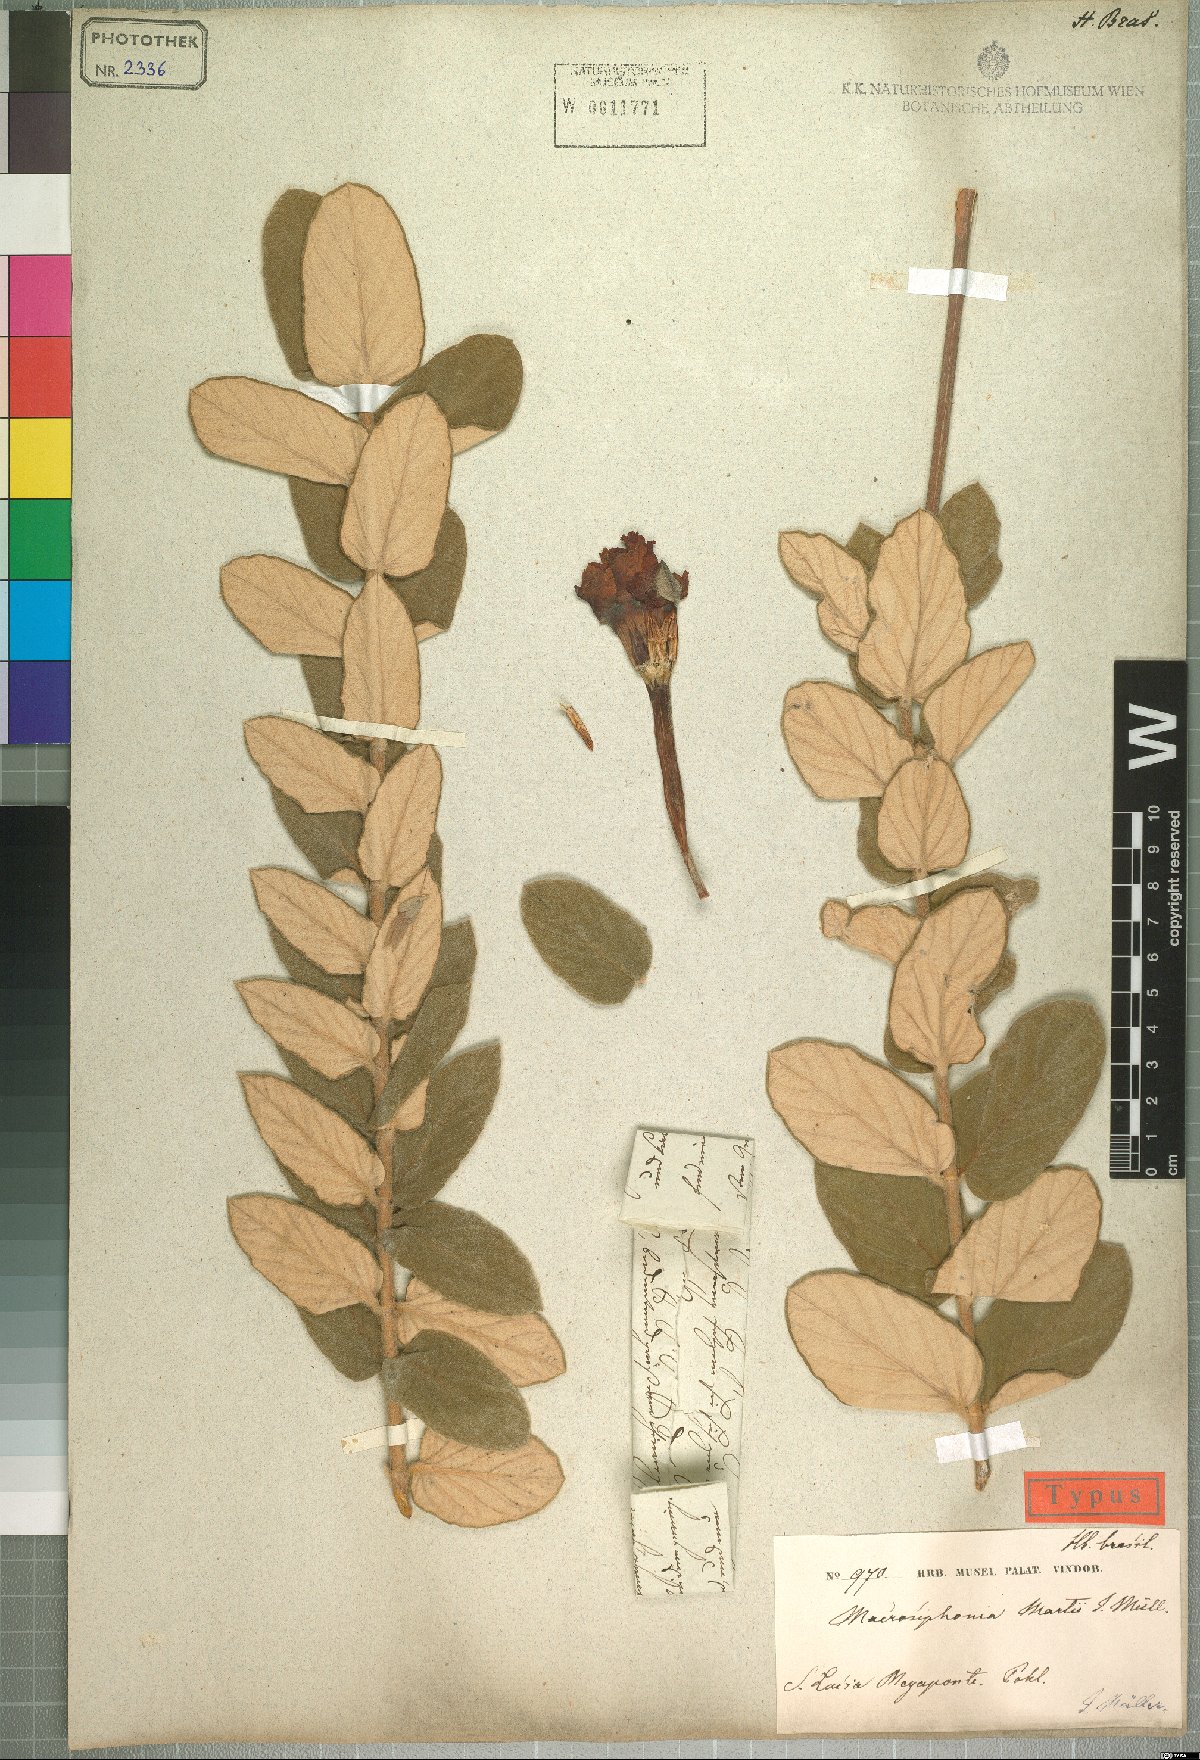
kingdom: Plantae
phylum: Tracheophyta
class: Magnoliopsida
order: Gentianales
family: Apocynaceae
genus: Mandevilla
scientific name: Mandevilla martii
